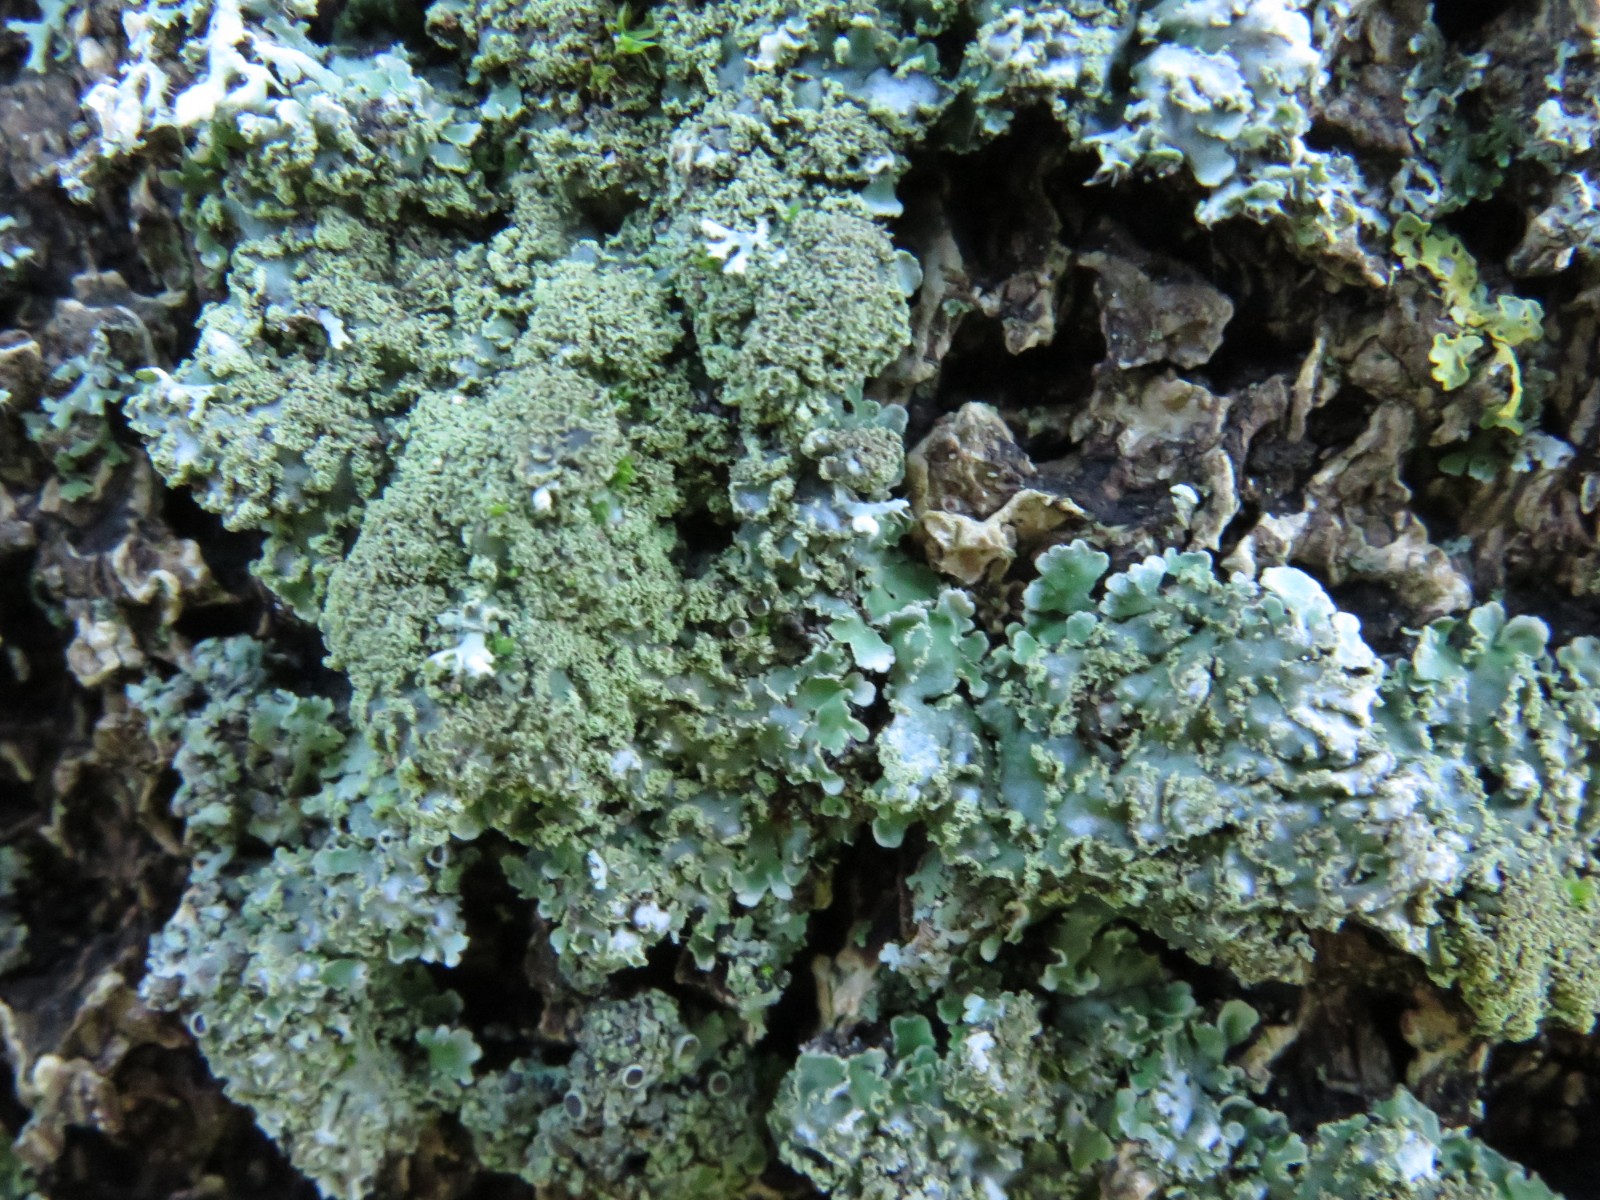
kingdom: Fungi
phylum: Ascomycota
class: Lecanoromycetes
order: Caliciales
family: Physciaceae
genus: Physconia
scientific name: Physconia perisidiosa
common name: liden dugrosetlav
